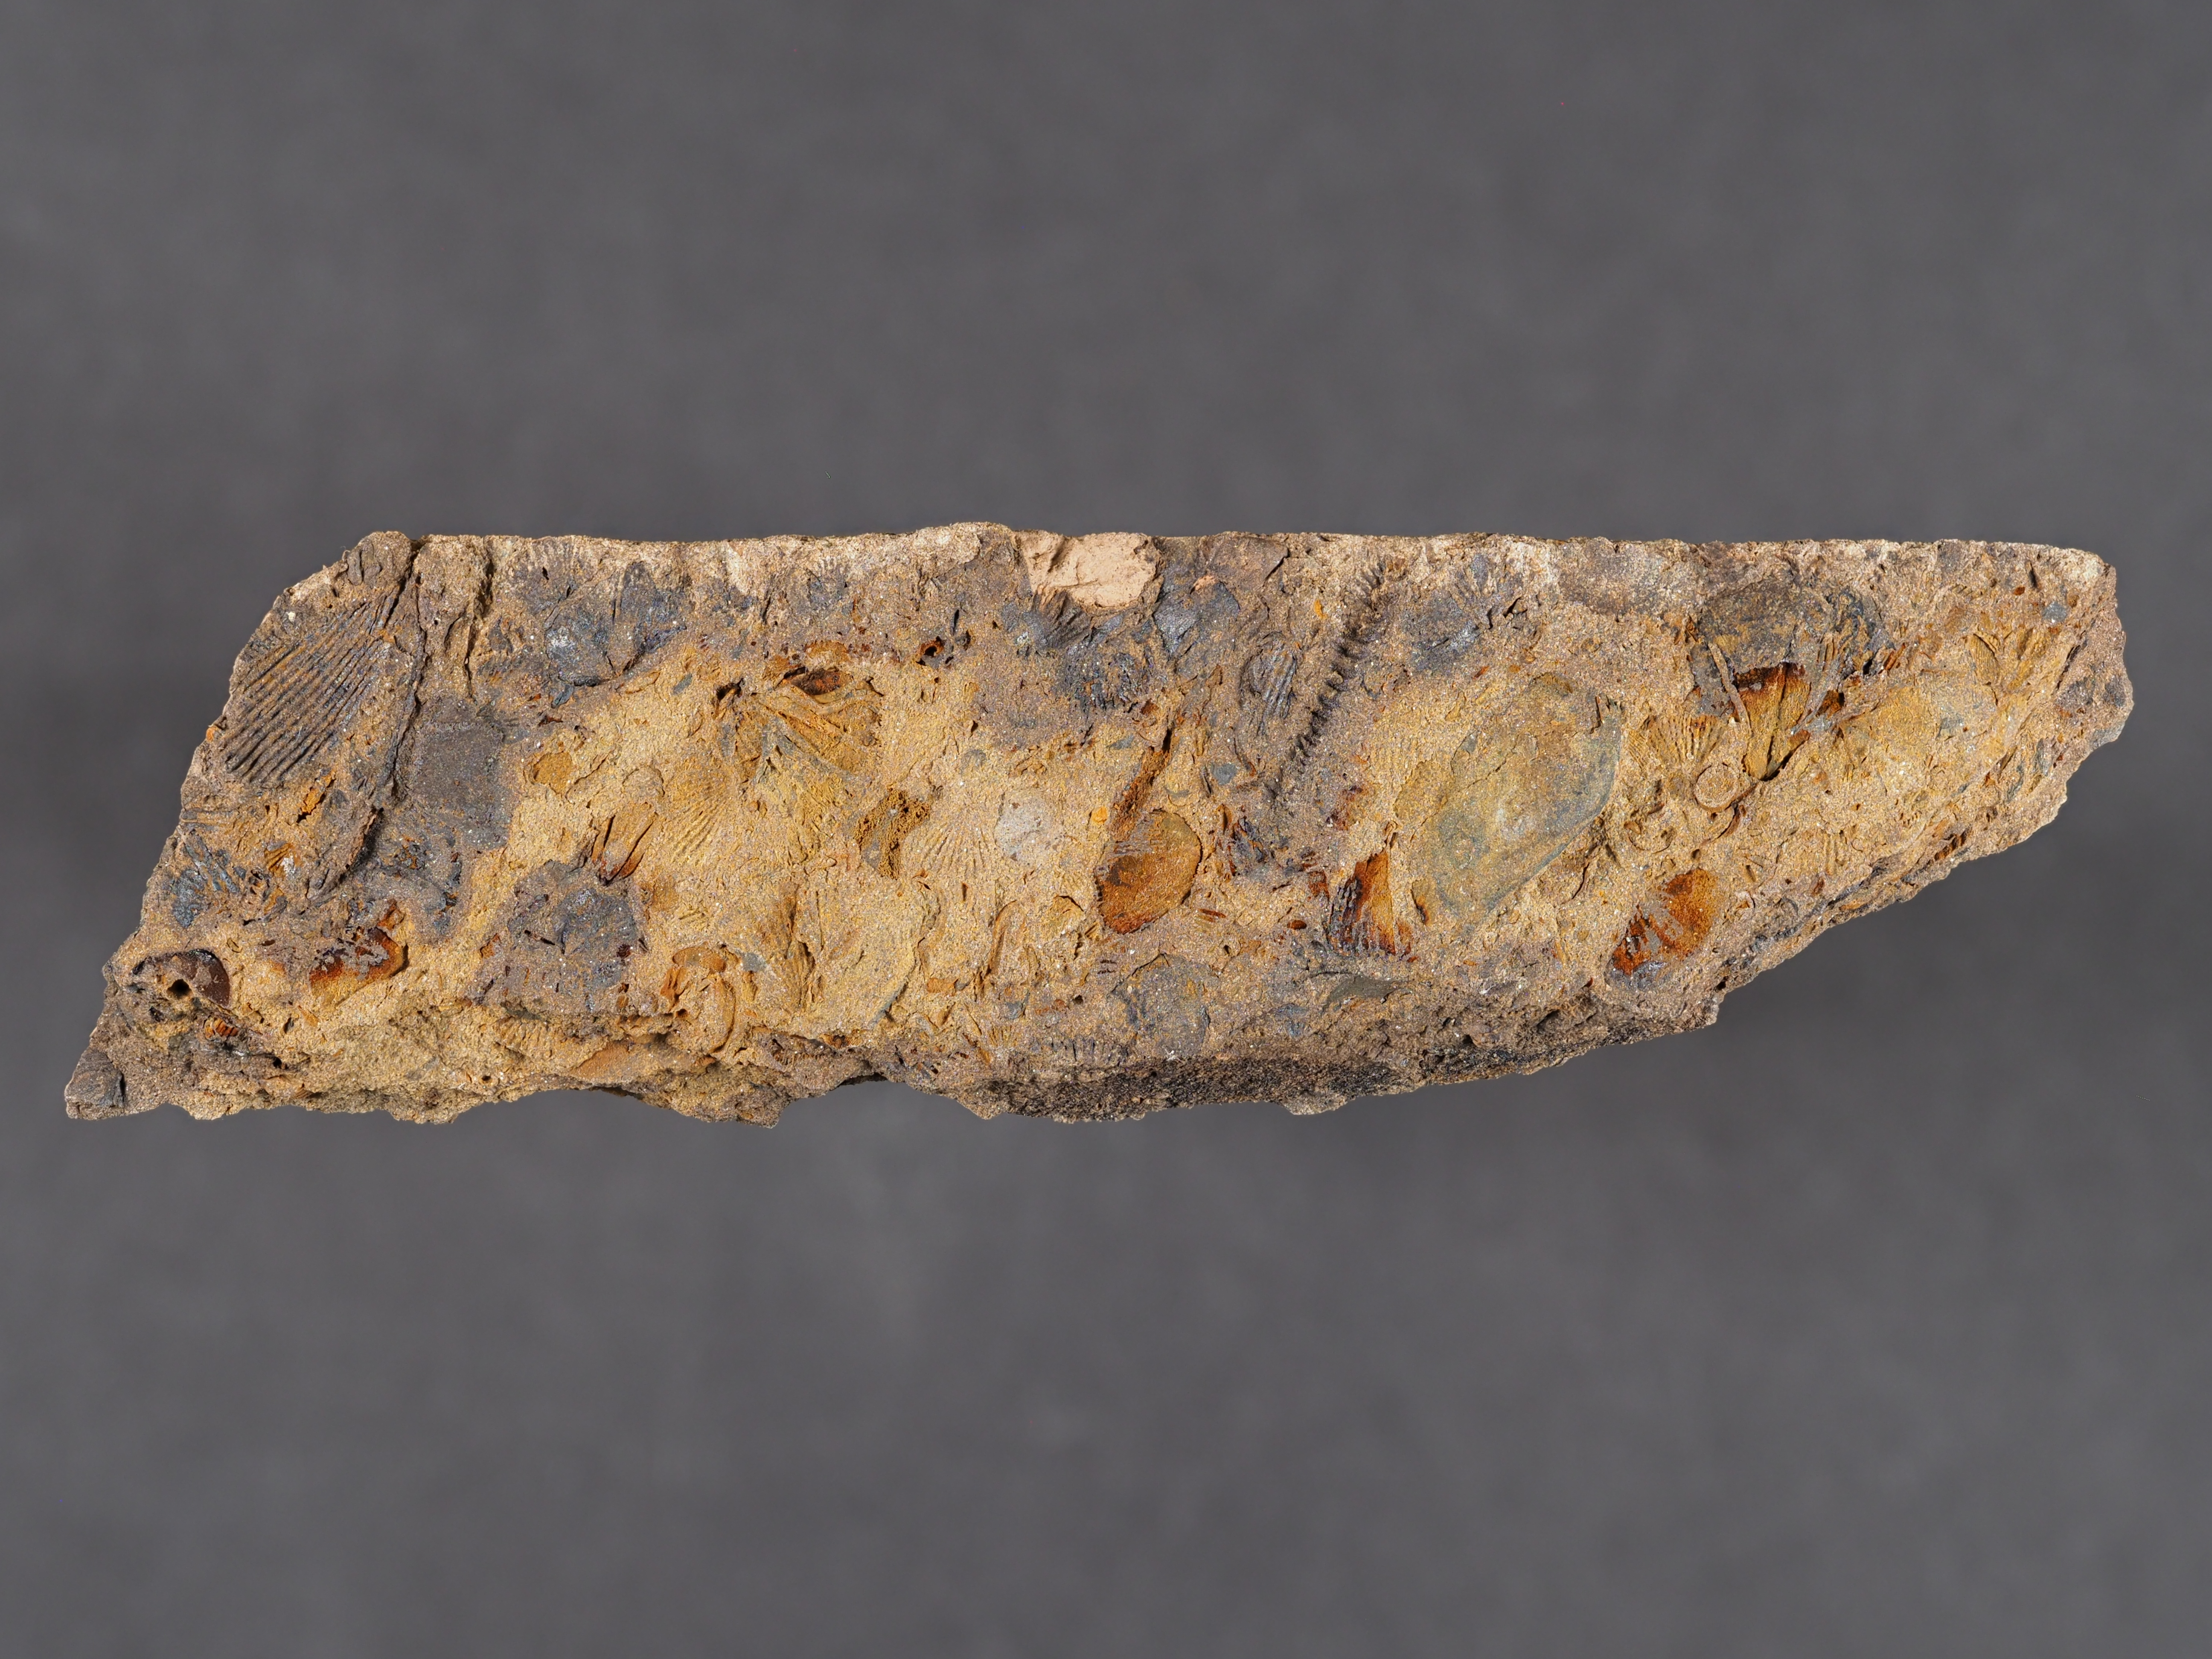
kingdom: Animalia
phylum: Mollusca
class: Cricoconarida
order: Tentaculitida
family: Tentaculitidae
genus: Tentaculites
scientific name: Tentaculites
